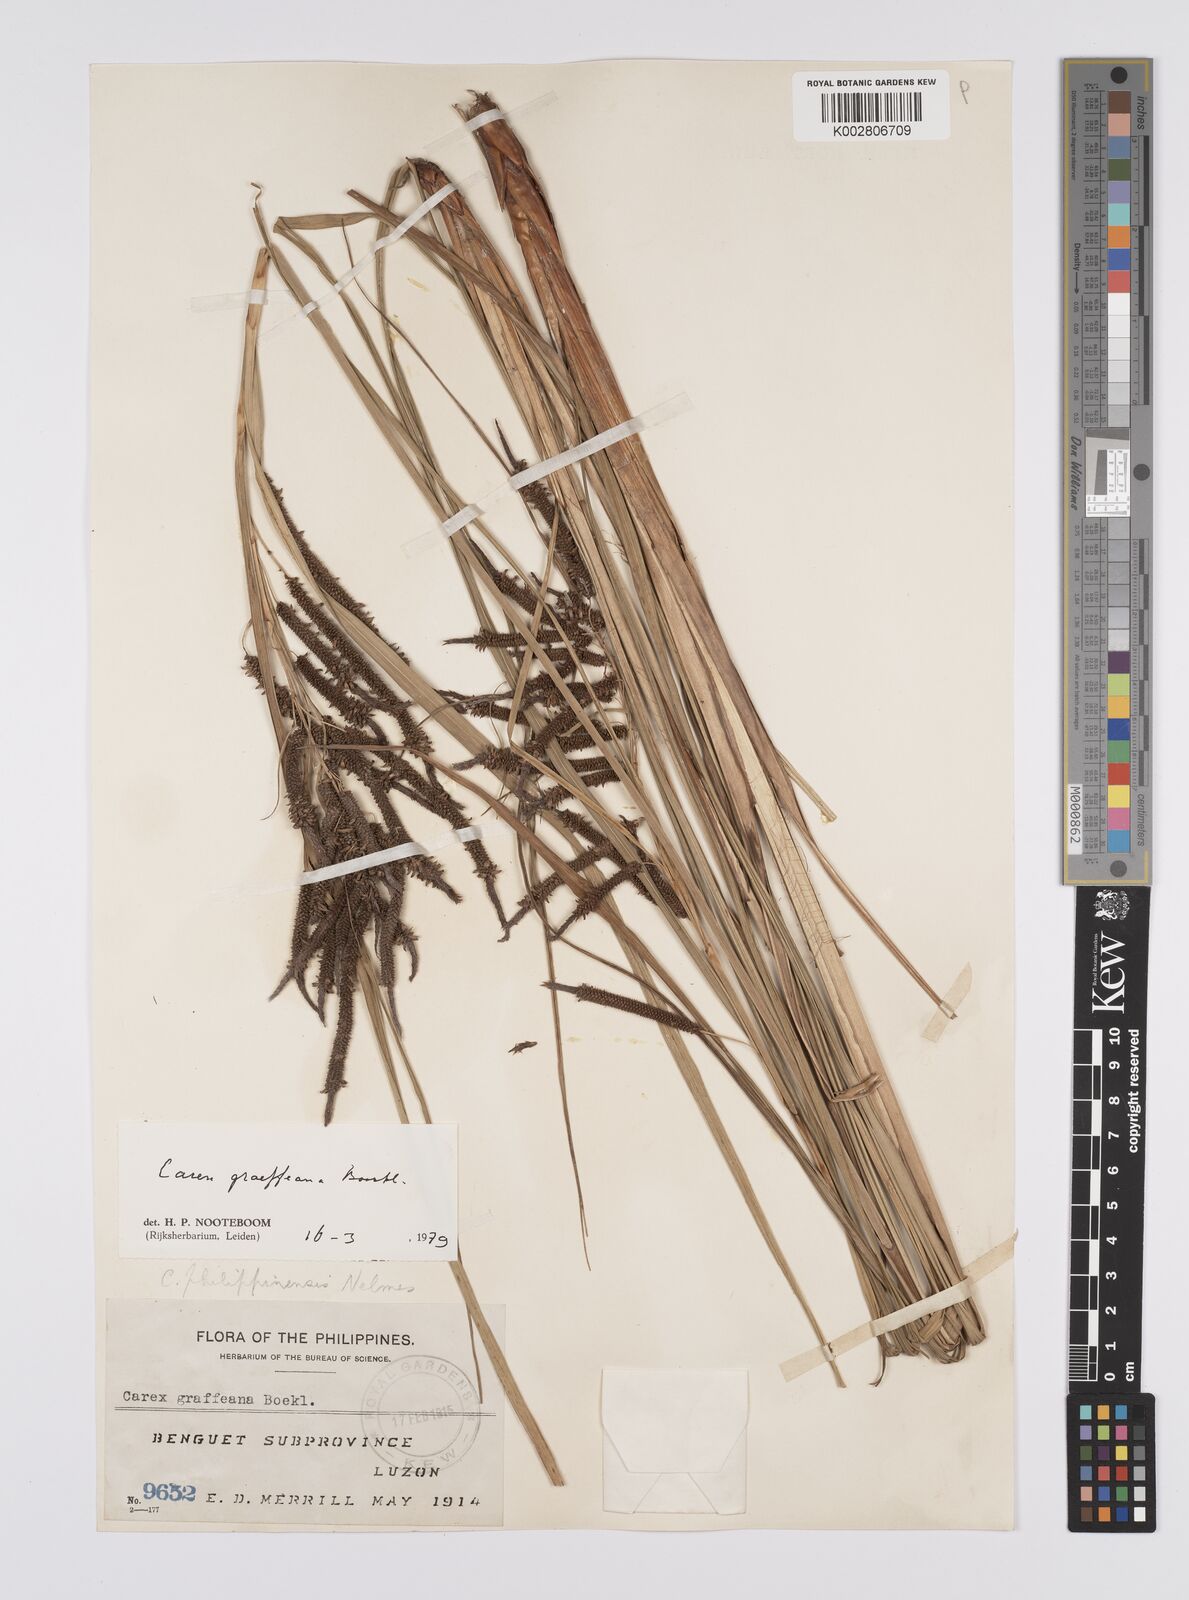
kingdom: Plantae
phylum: Tracheophyta
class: Liliopsida
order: Poales
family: Cyperaceae
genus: Carex
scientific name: Carex graeffeana
